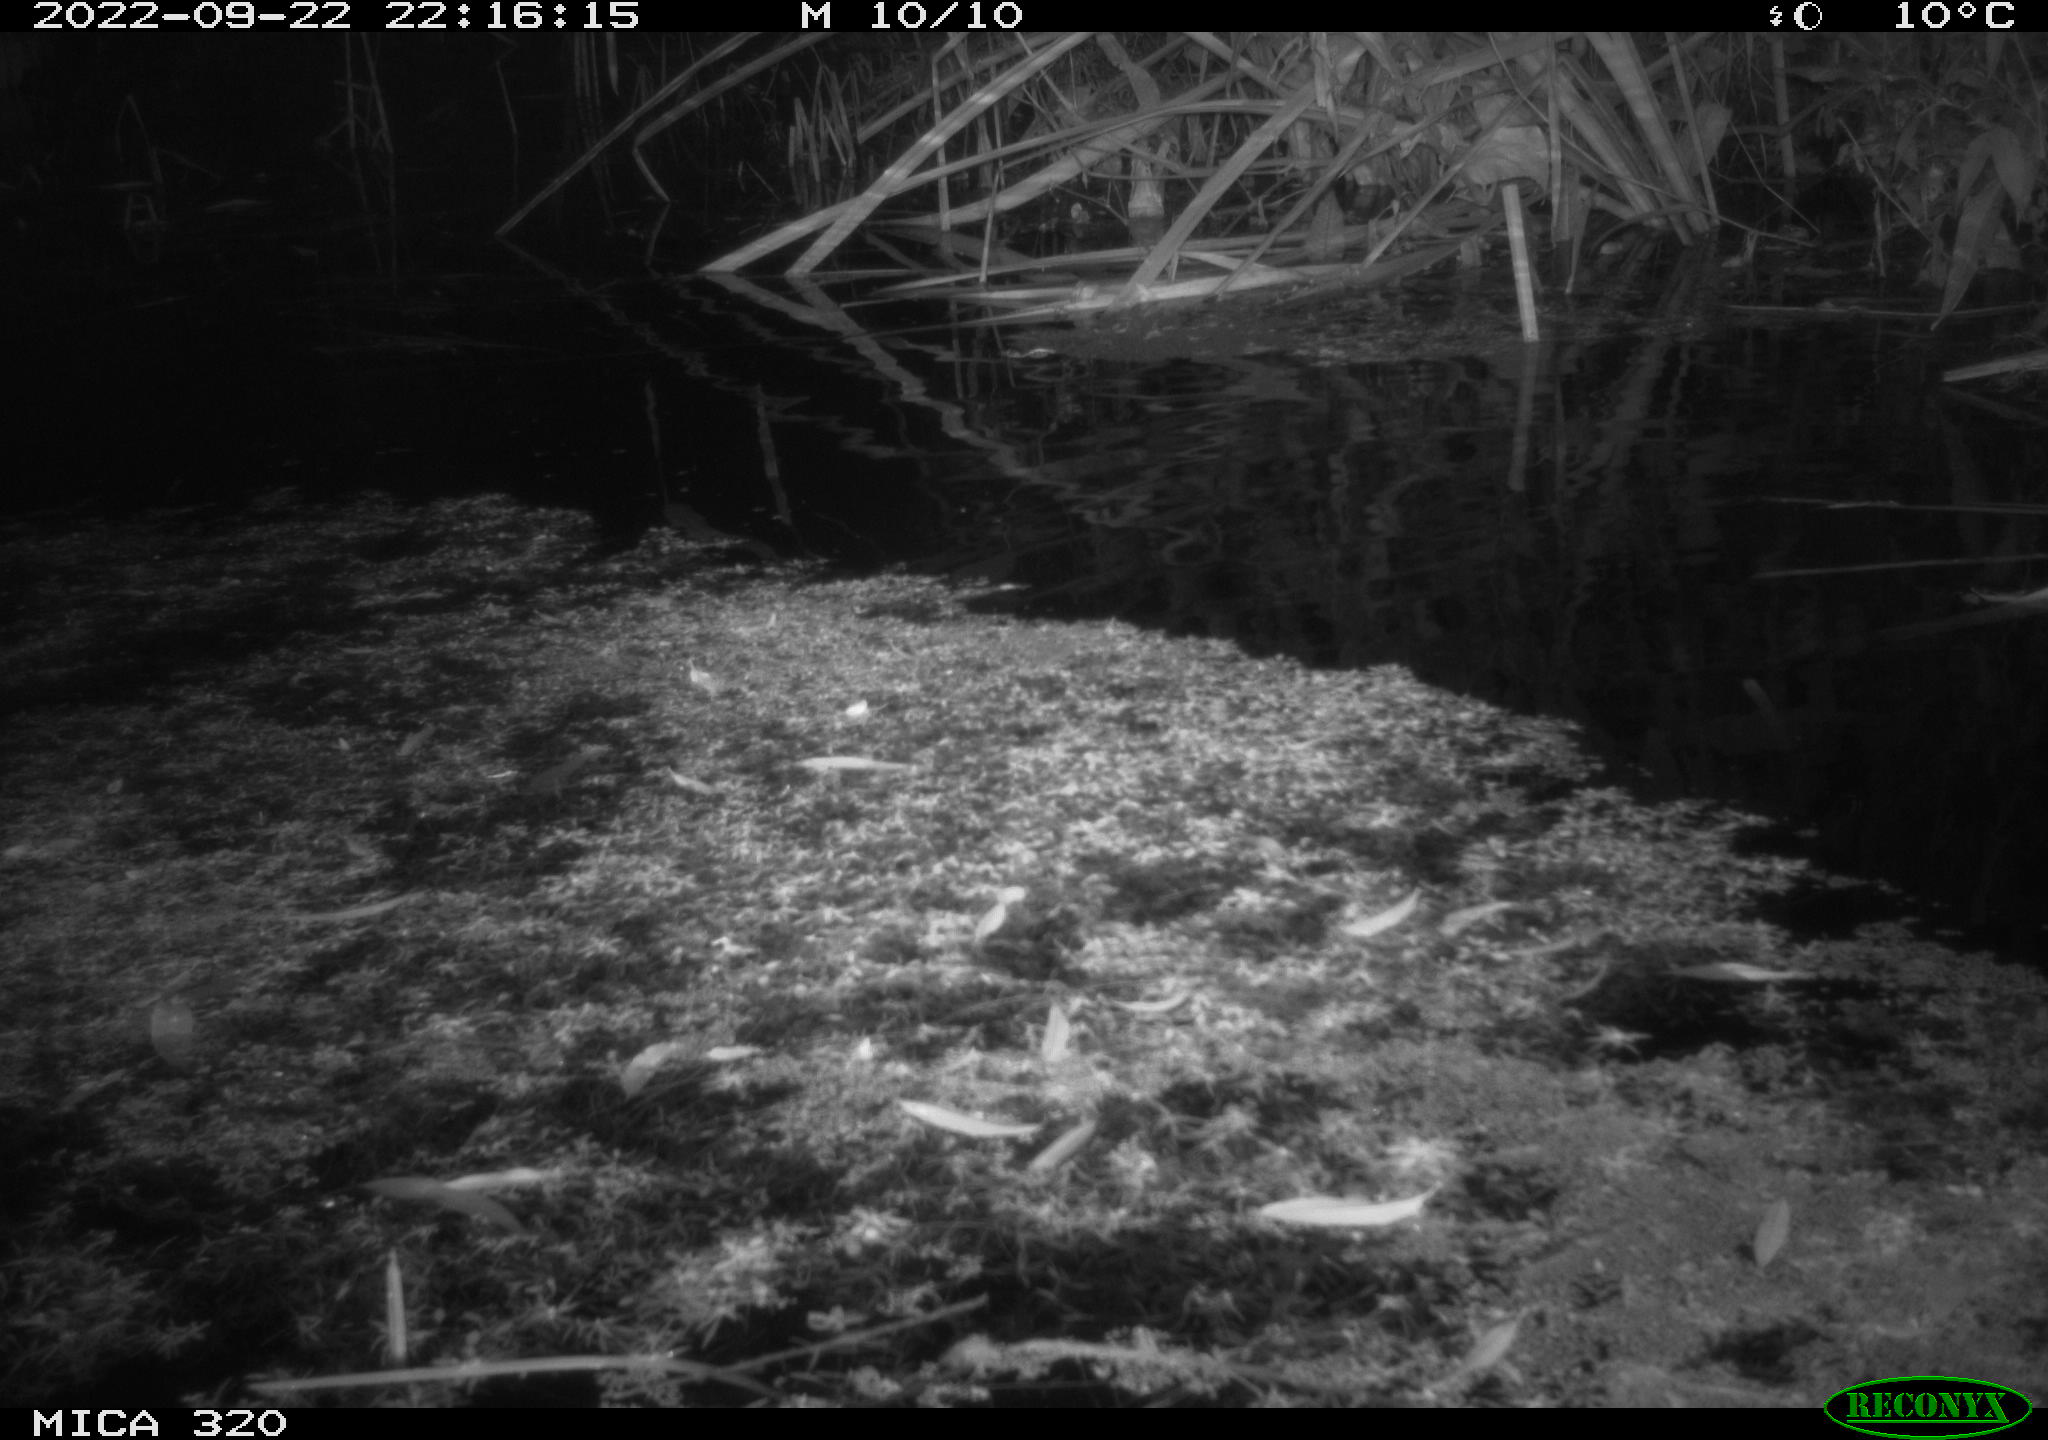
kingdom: Animalia
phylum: Chordata
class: Mammalia
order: Rodentia
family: Muridae
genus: Rattus
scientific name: Rattus norvegicus
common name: Brown rat
